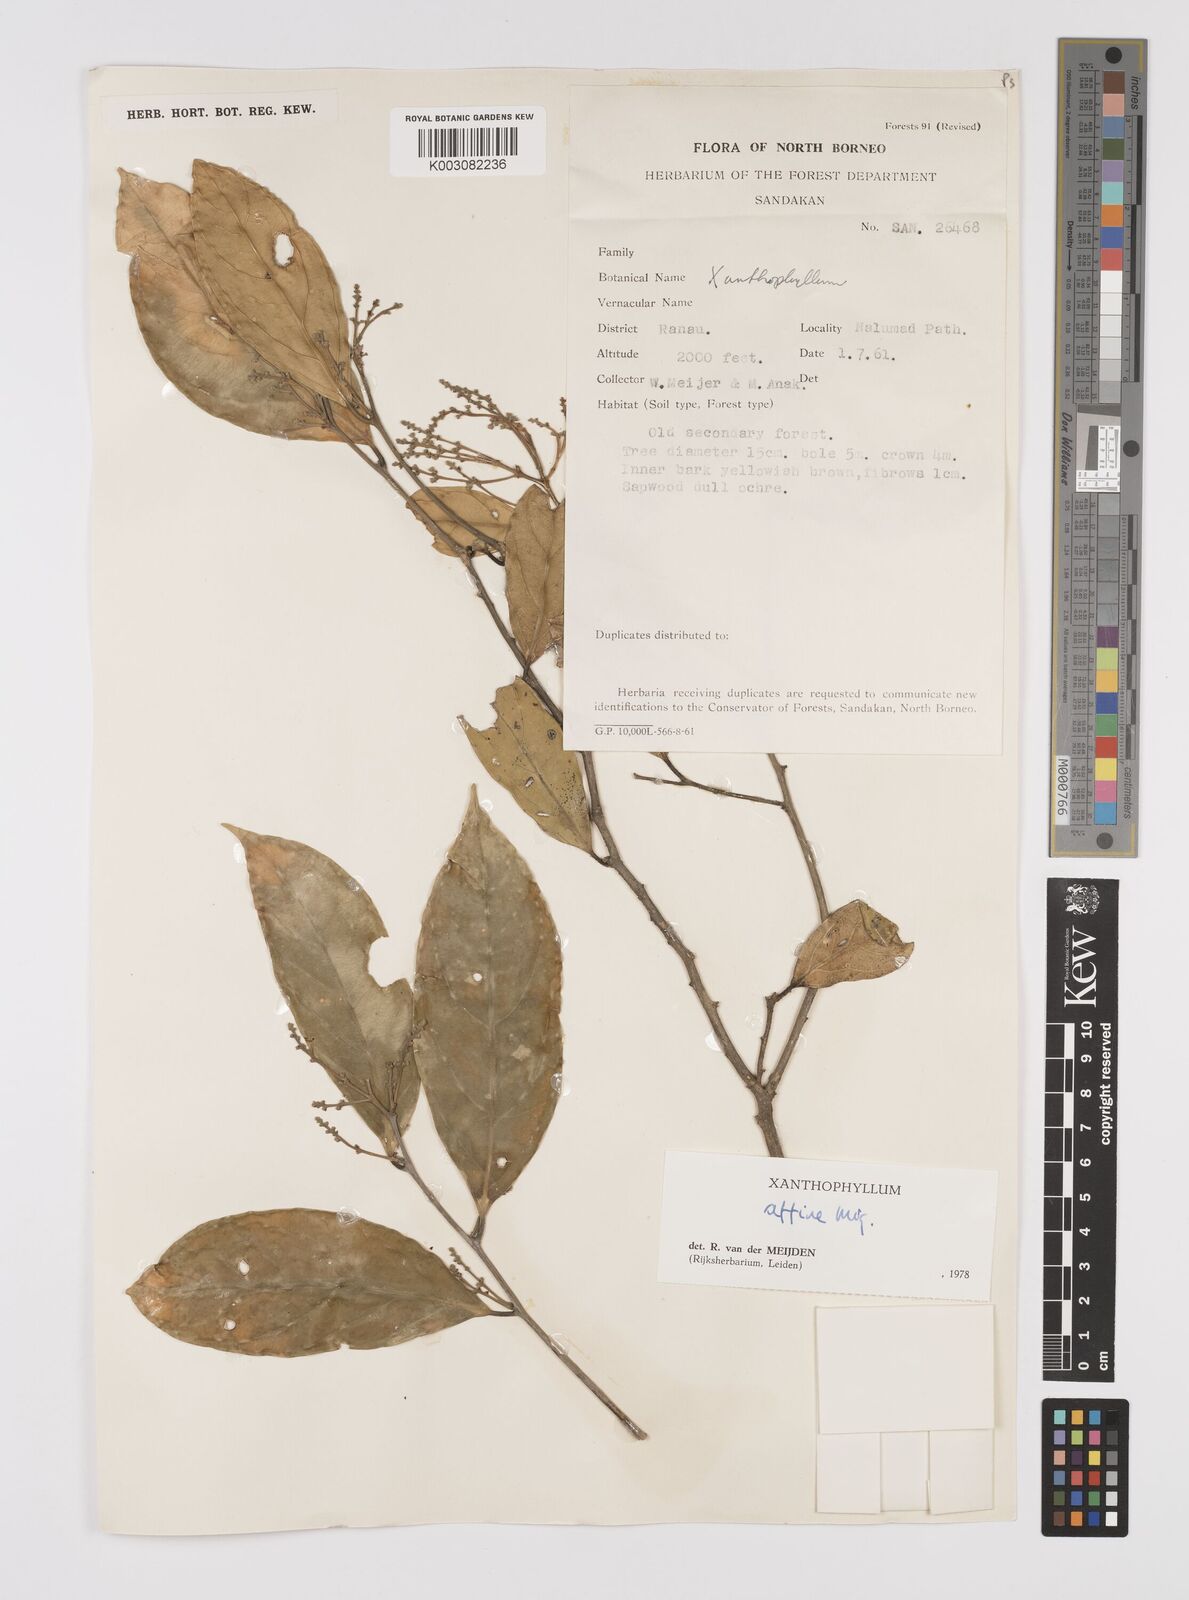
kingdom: Plantae
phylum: Tracheophyta
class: Magnoliopsida
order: Fabales
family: Polygalaceae
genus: Xanthophyllum
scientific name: Xanthophyllum flavescens
